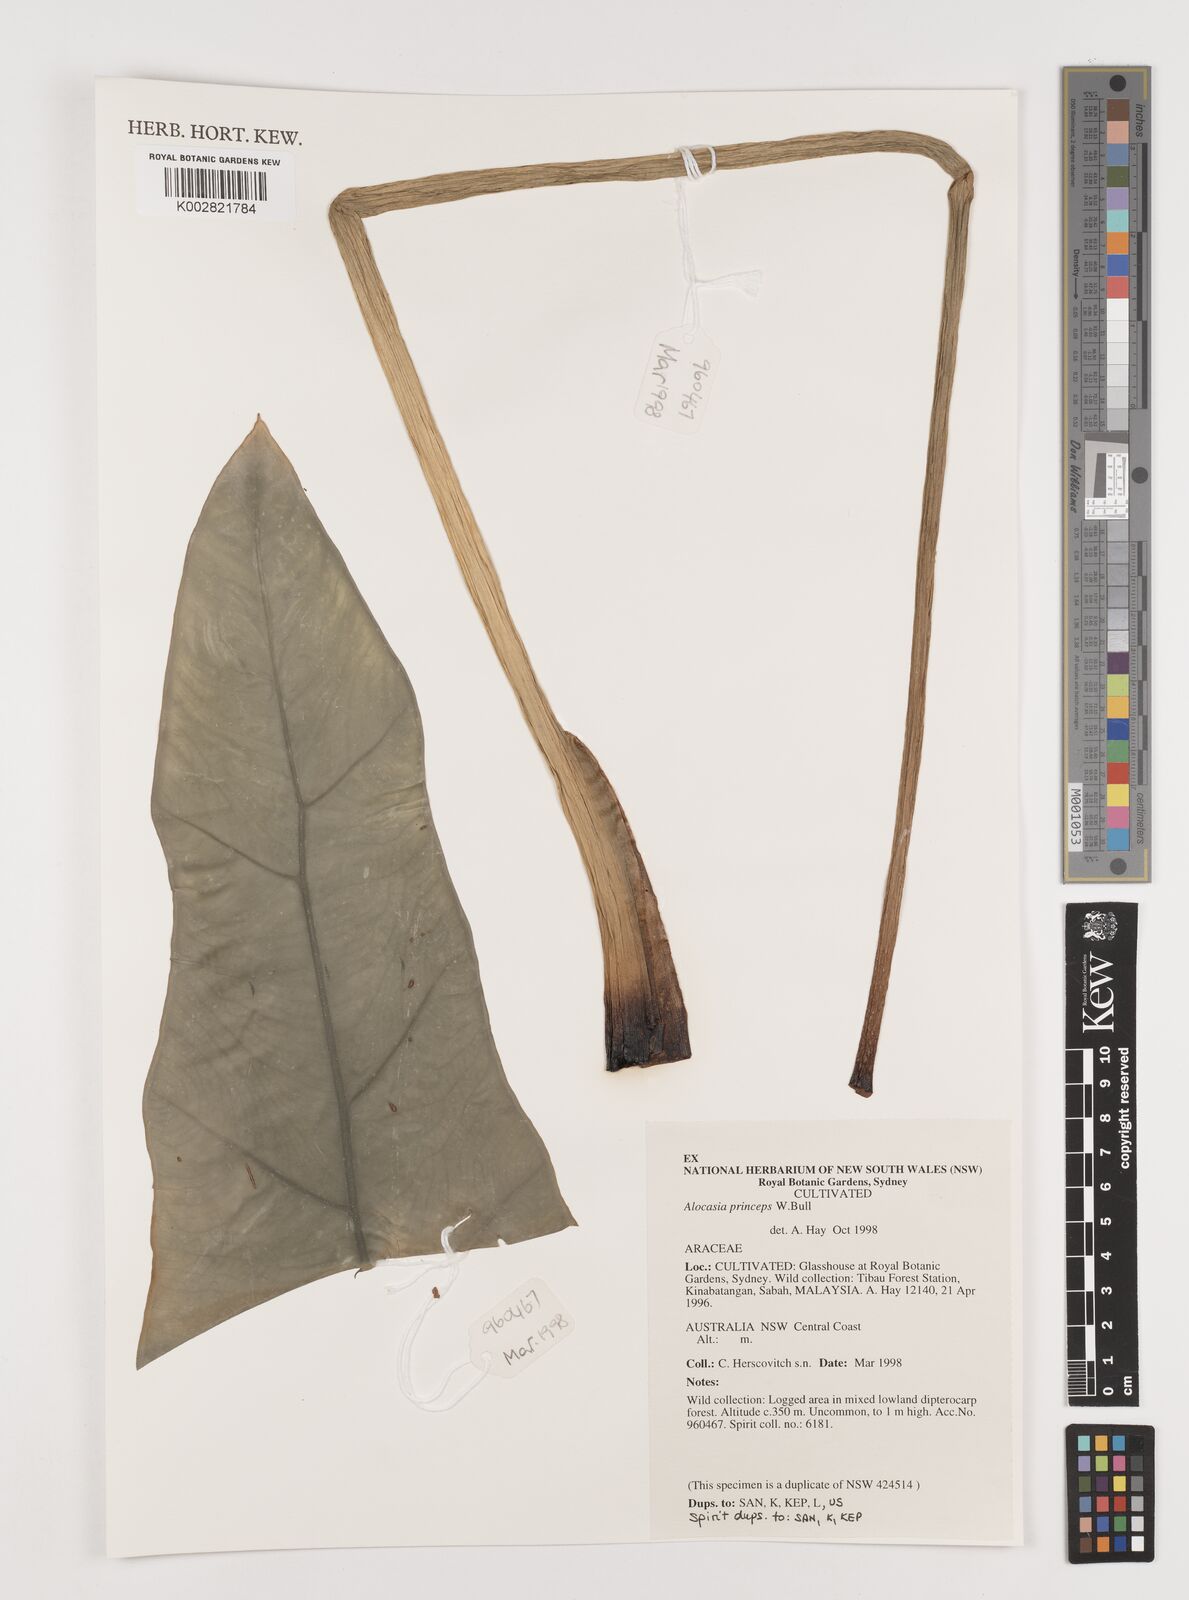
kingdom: Plantae
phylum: Tracheophyta
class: Liliopsida
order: Alismatales
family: Araceae
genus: Alocasia
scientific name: Alocasia
